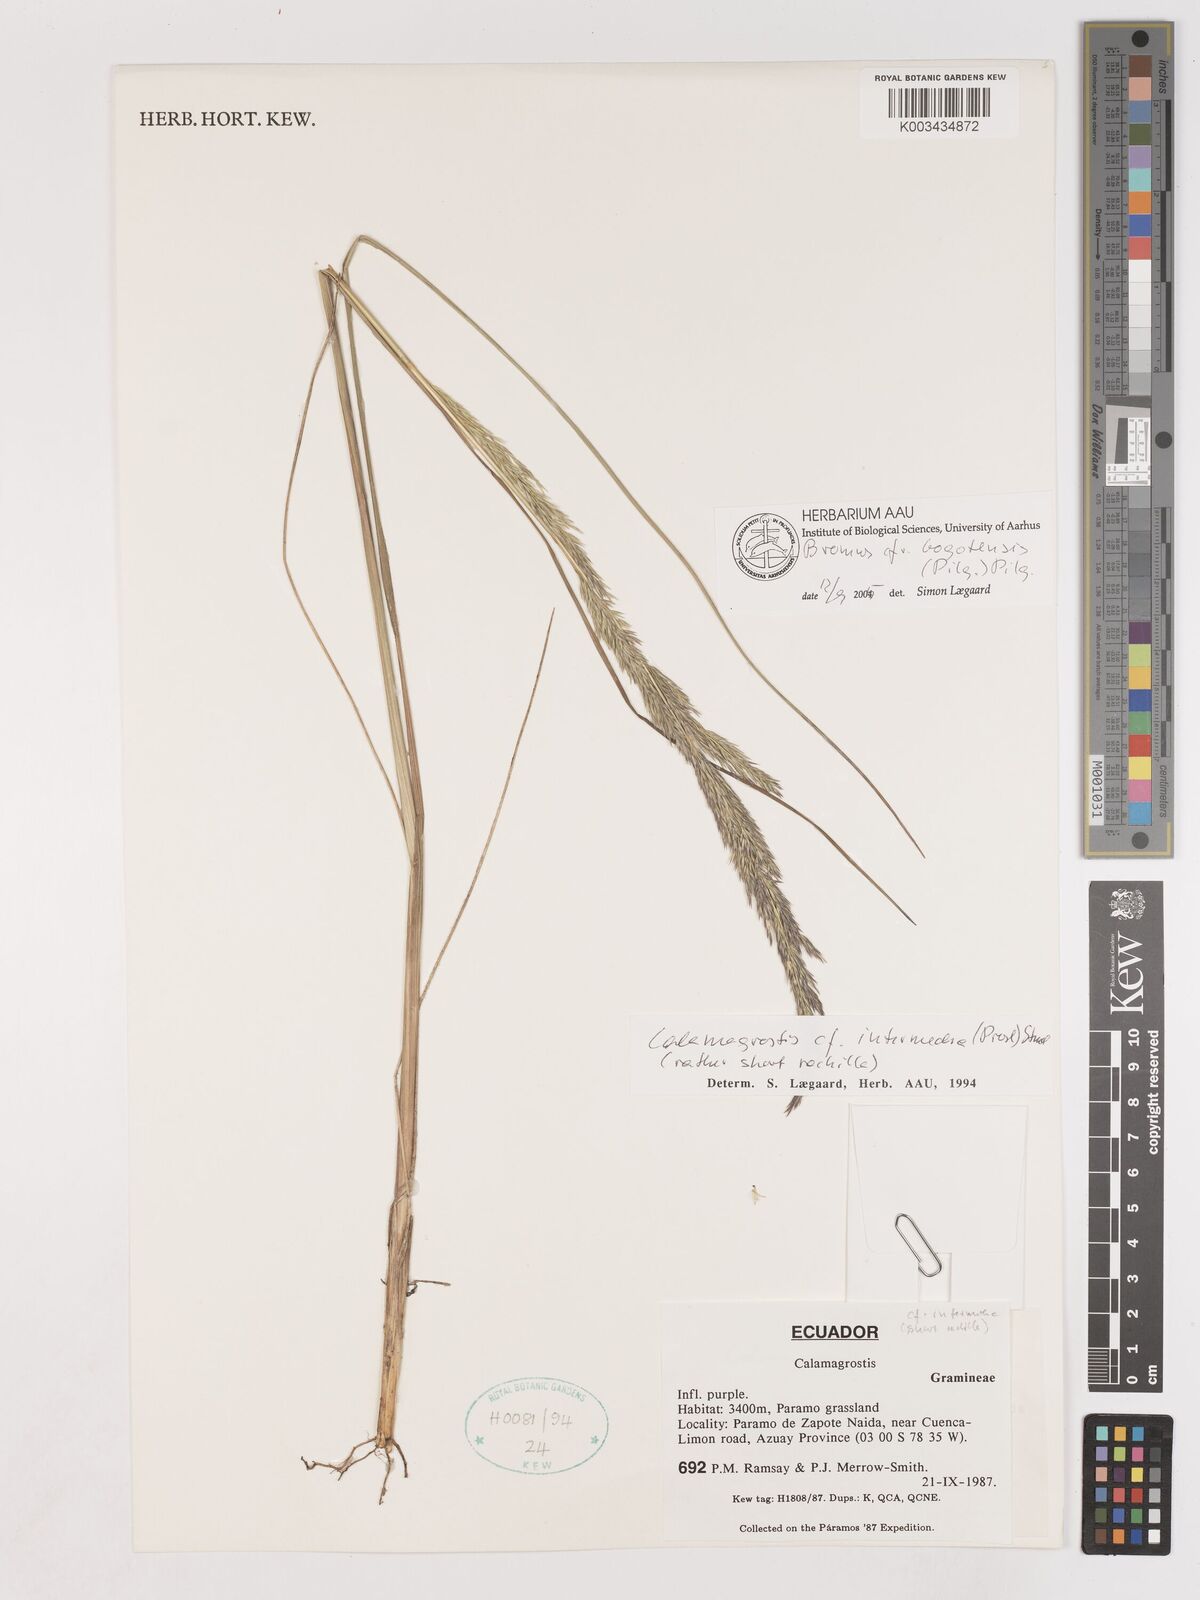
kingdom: Plantae
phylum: Tracheophyta
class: Liliopsida
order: Poales
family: Poaceae
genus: Calamagrostis
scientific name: Calamagrostis bogotensis
